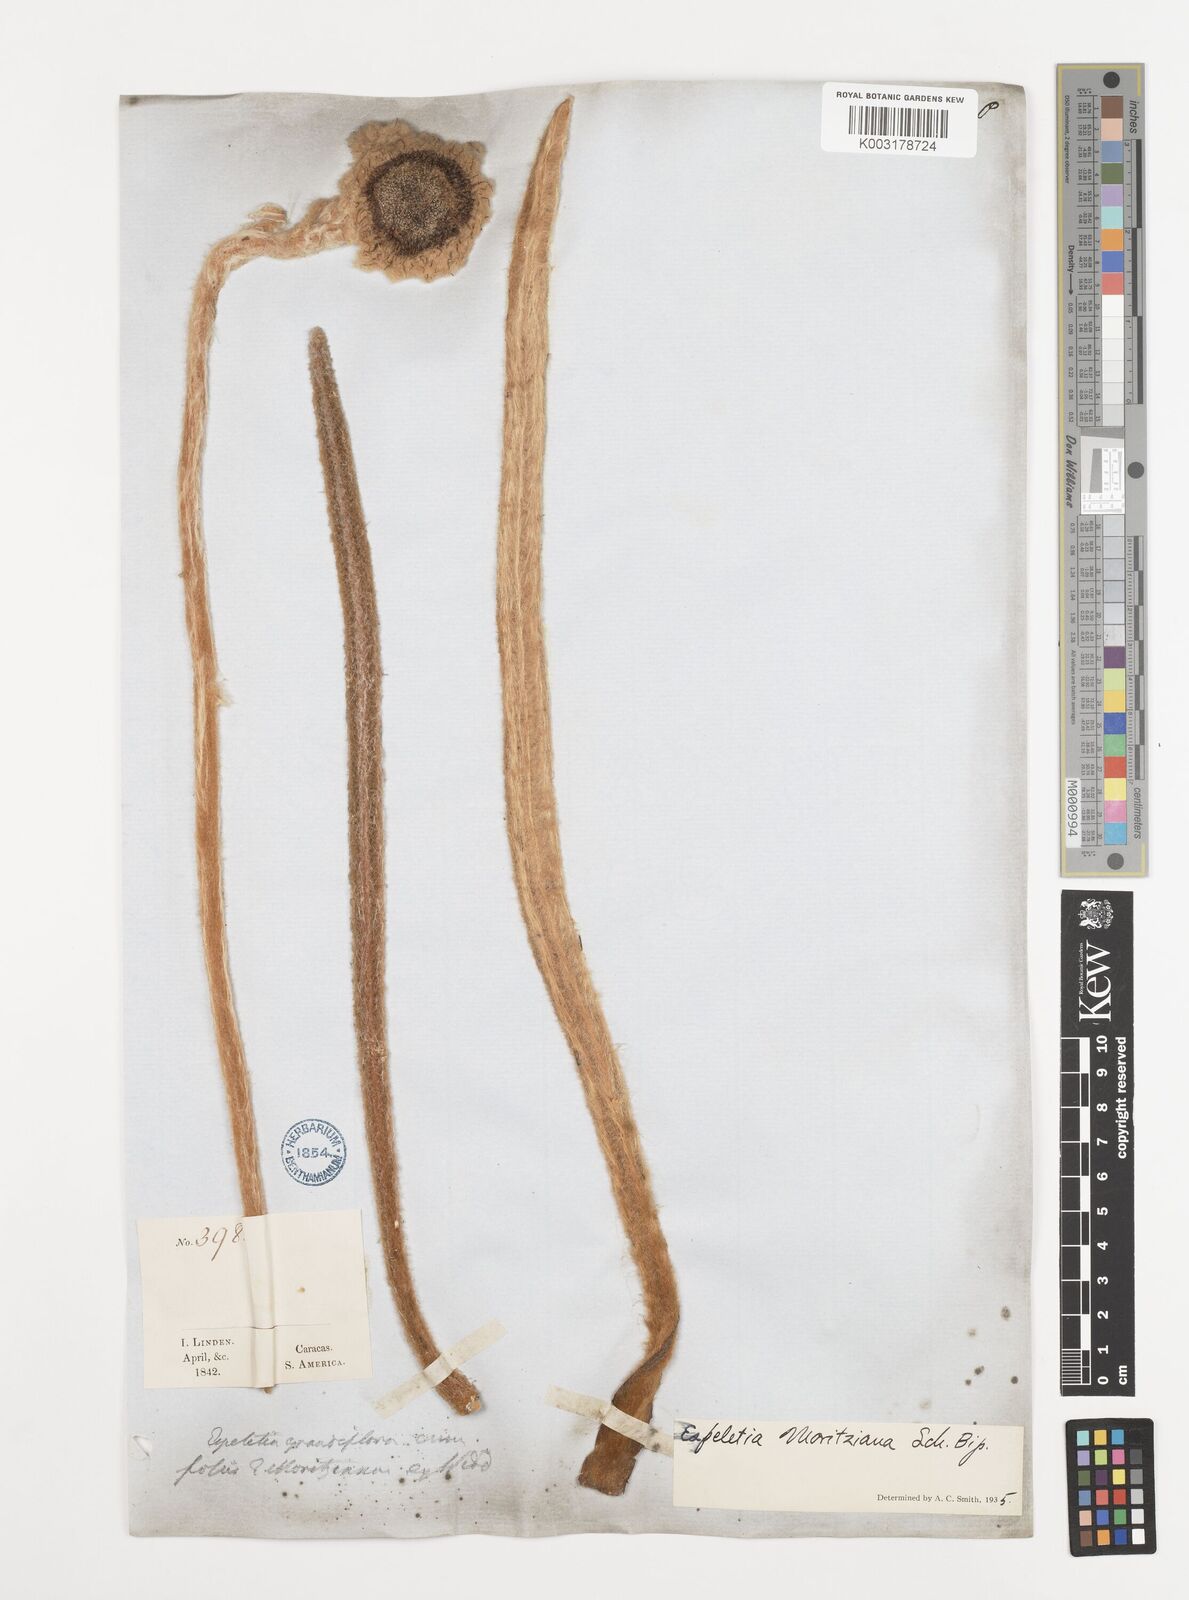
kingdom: Plantae
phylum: Tracheophyta
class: Magnoliopsida
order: Asterales
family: Asteraceae
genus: Espeletia
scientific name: Espeletia moritziana
